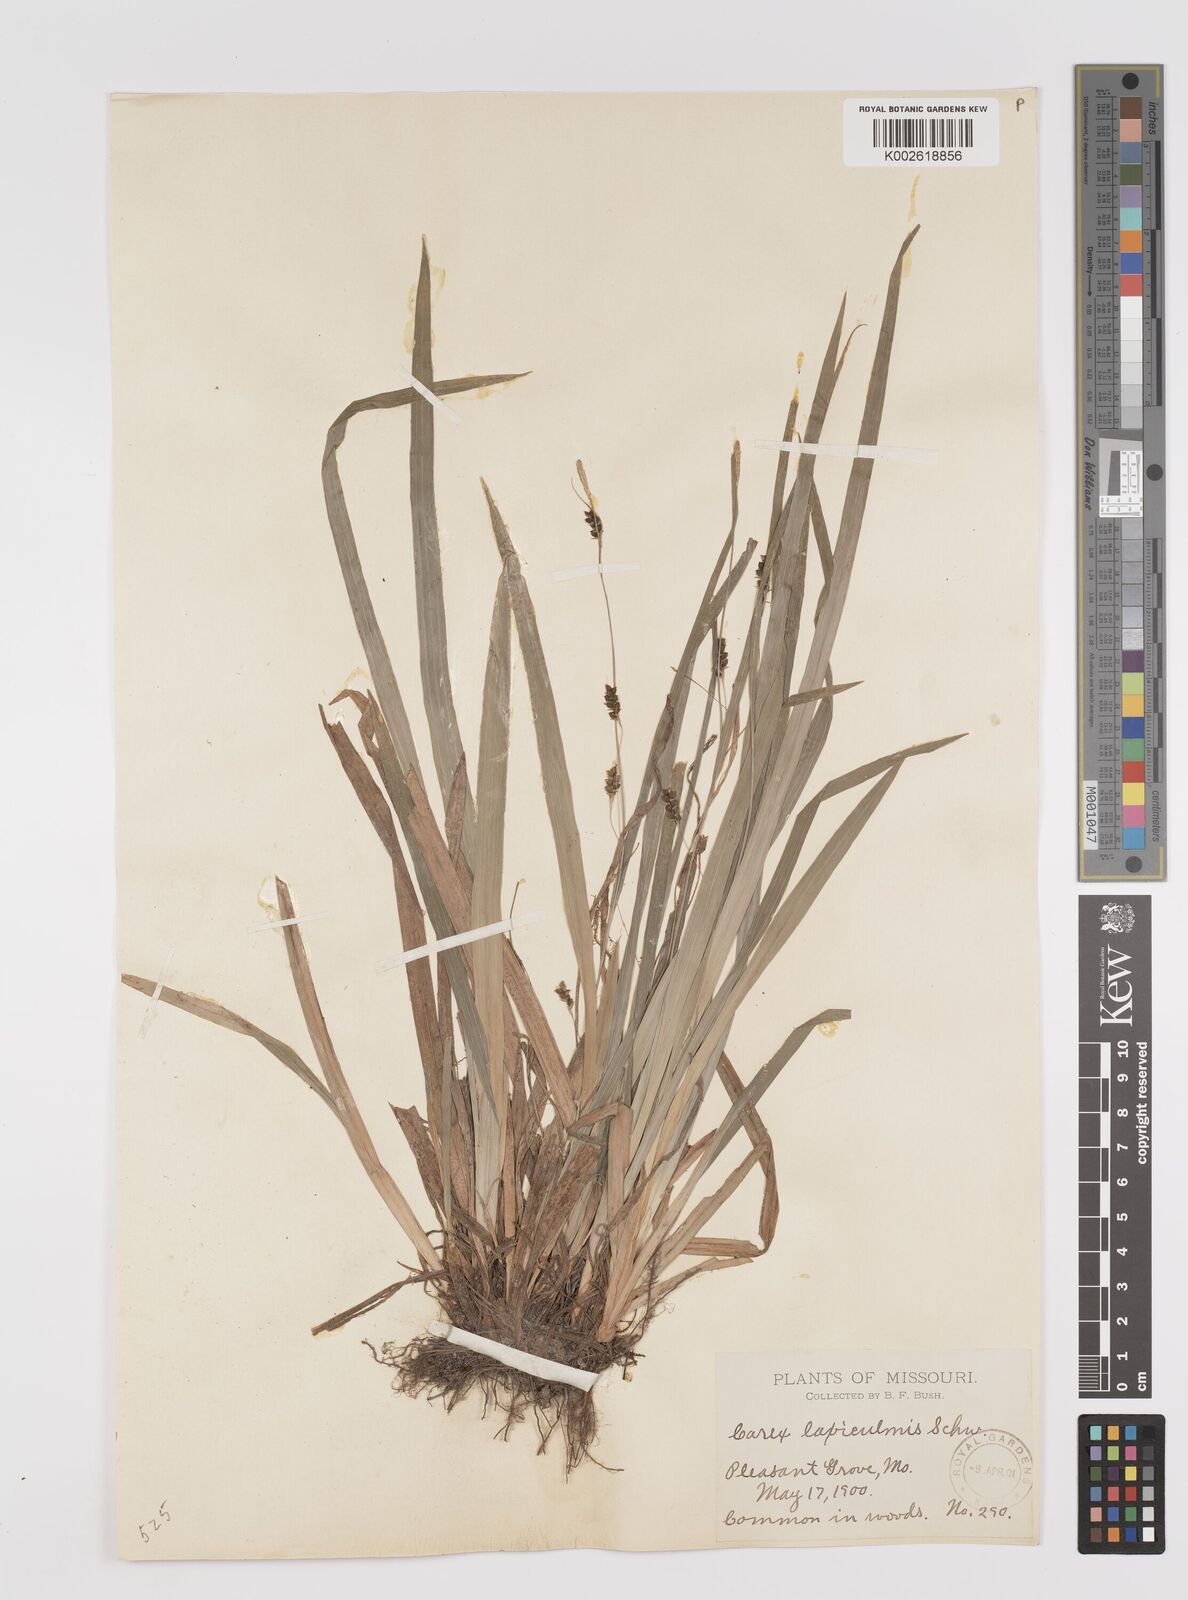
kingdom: Plantae
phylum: Tracheophyta
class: Liliopsida
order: Poales
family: Cyperaceae
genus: Carex
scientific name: Carex laxiculmis
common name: Spreading sedge
